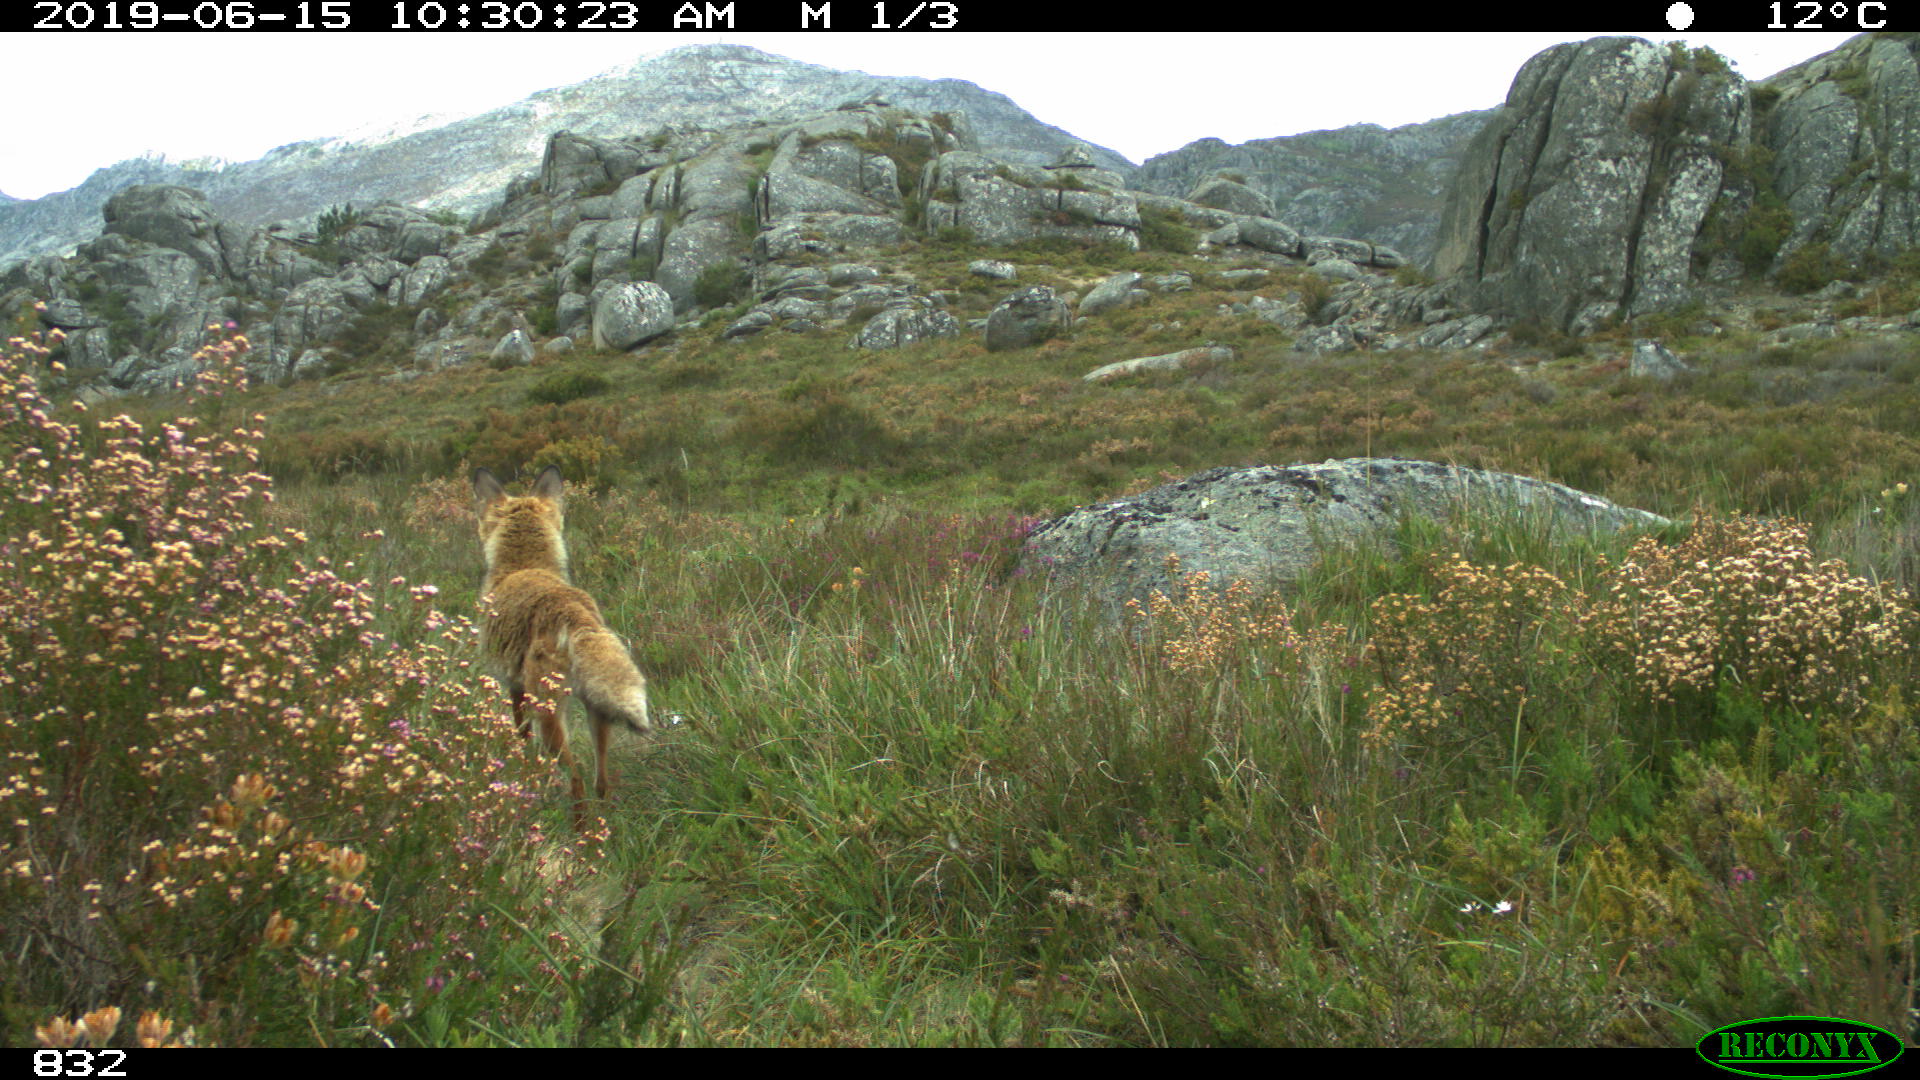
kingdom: Animalia
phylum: Chordata
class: Mammalia
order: Carnivora
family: Canidae
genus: Vulpes
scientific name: Vulpes vulpes
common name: Red fox
